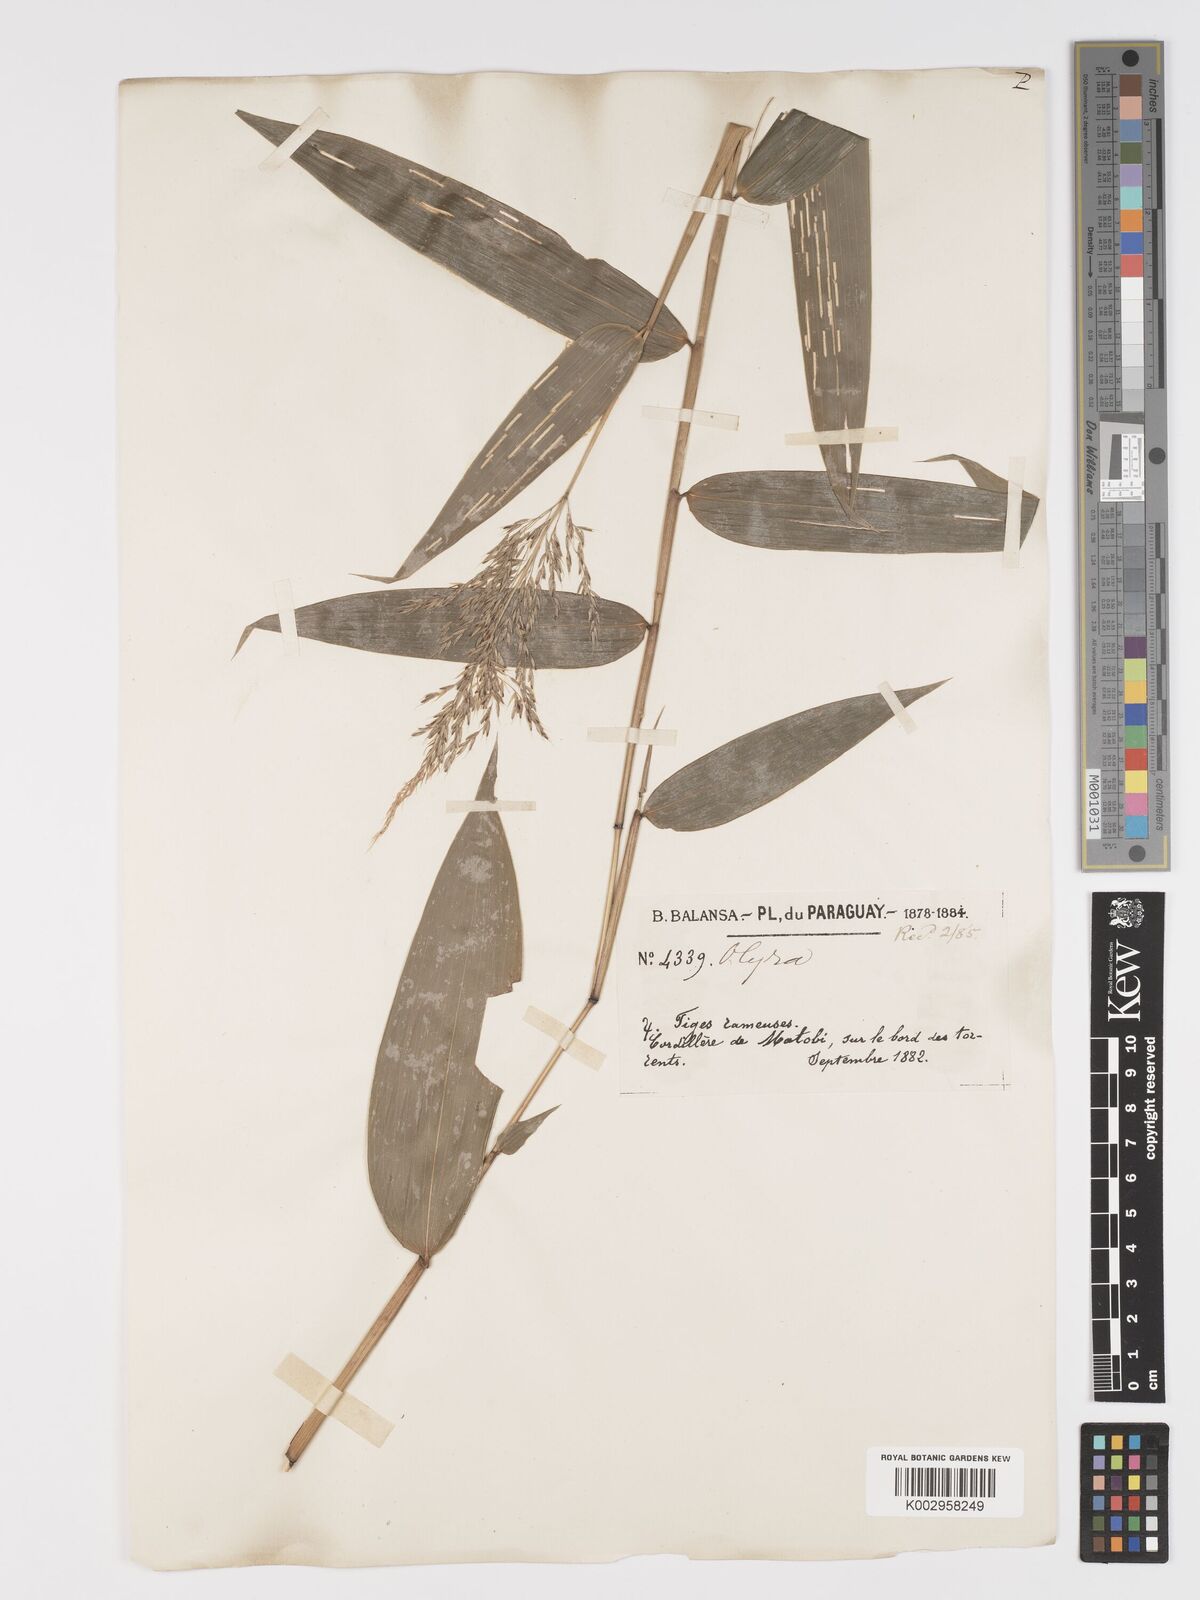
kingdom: Plantae
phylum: Tracheophyta
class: Liliopsida
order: Poales
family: Poaceae
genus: Taquara
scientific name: Taquara micrantha
